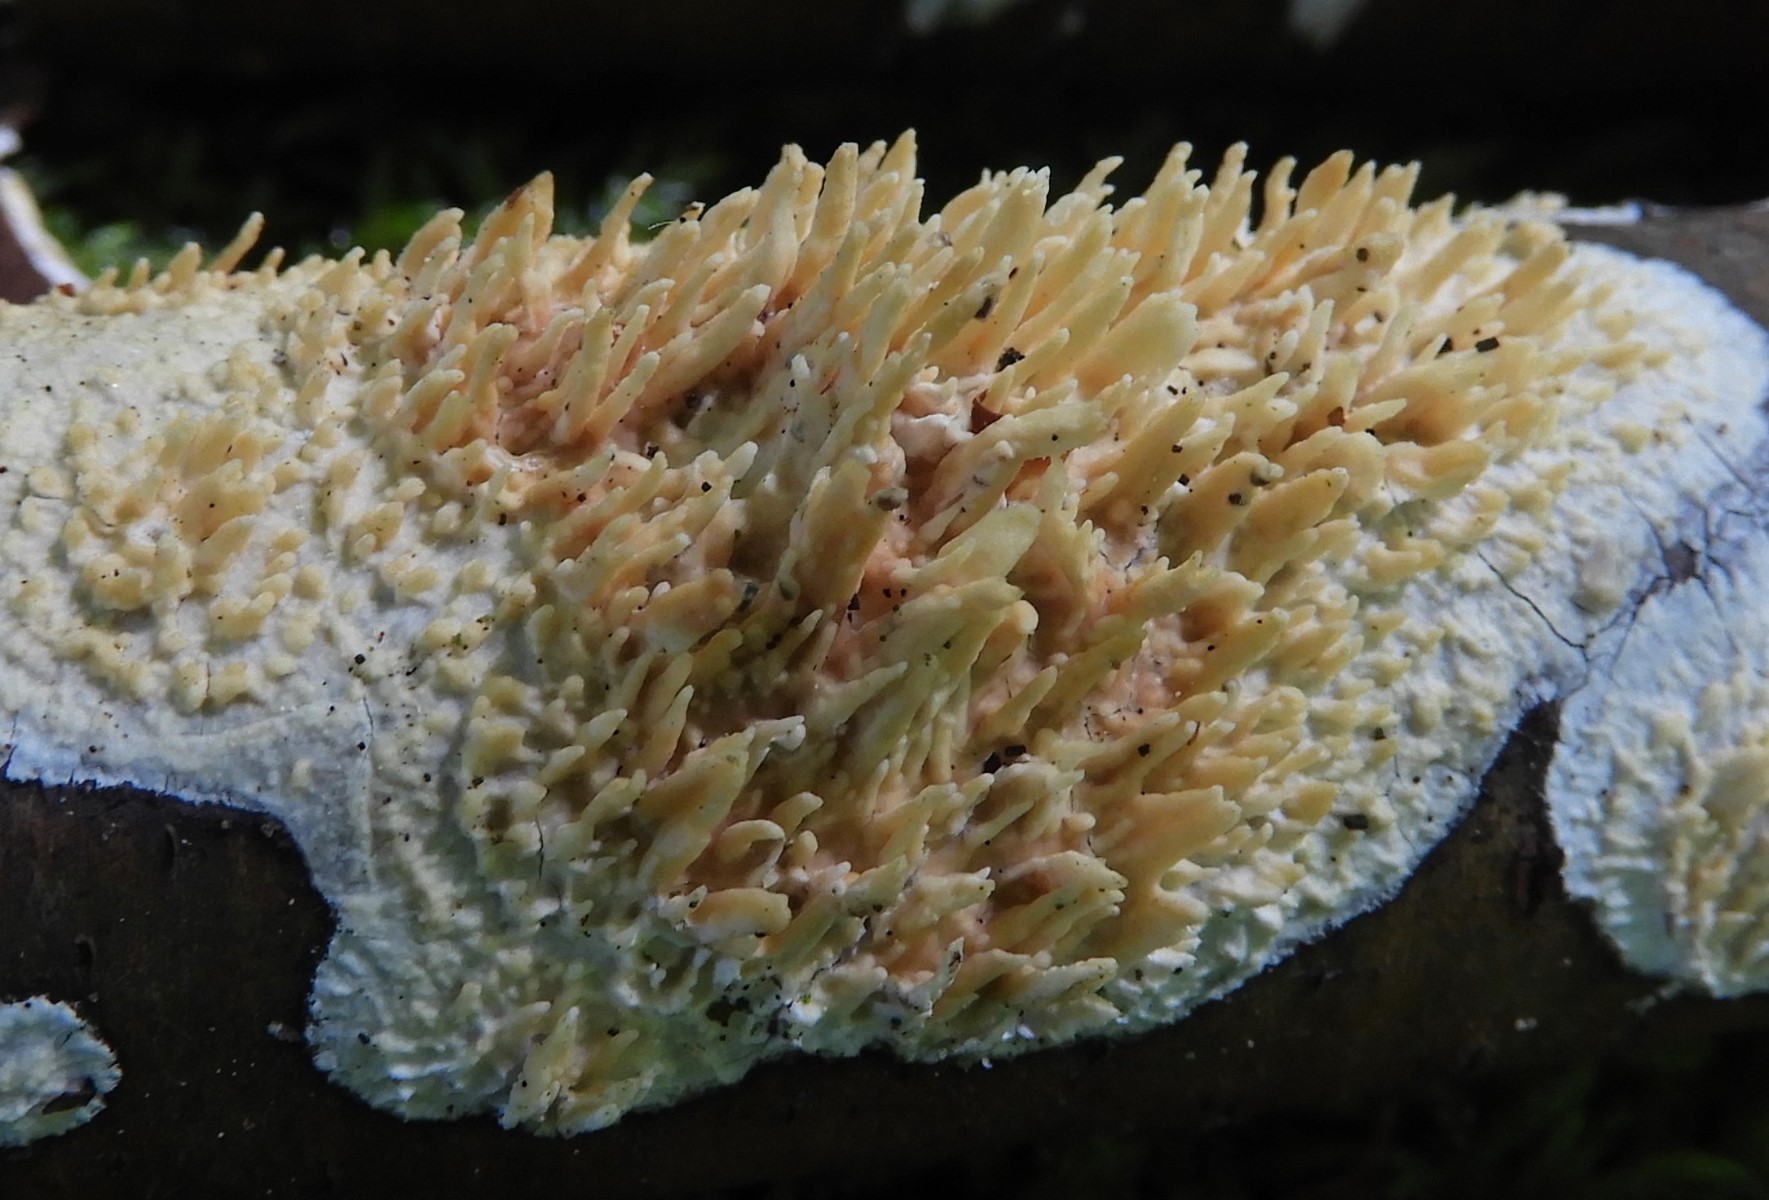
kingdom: Fungi
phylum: Basidiomycota
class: Agaricomycetes
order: Hymenochaetales
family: Schizoporaceae
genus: Xylodon
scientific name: Xylodon radula
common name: grovtandet kalkskind
